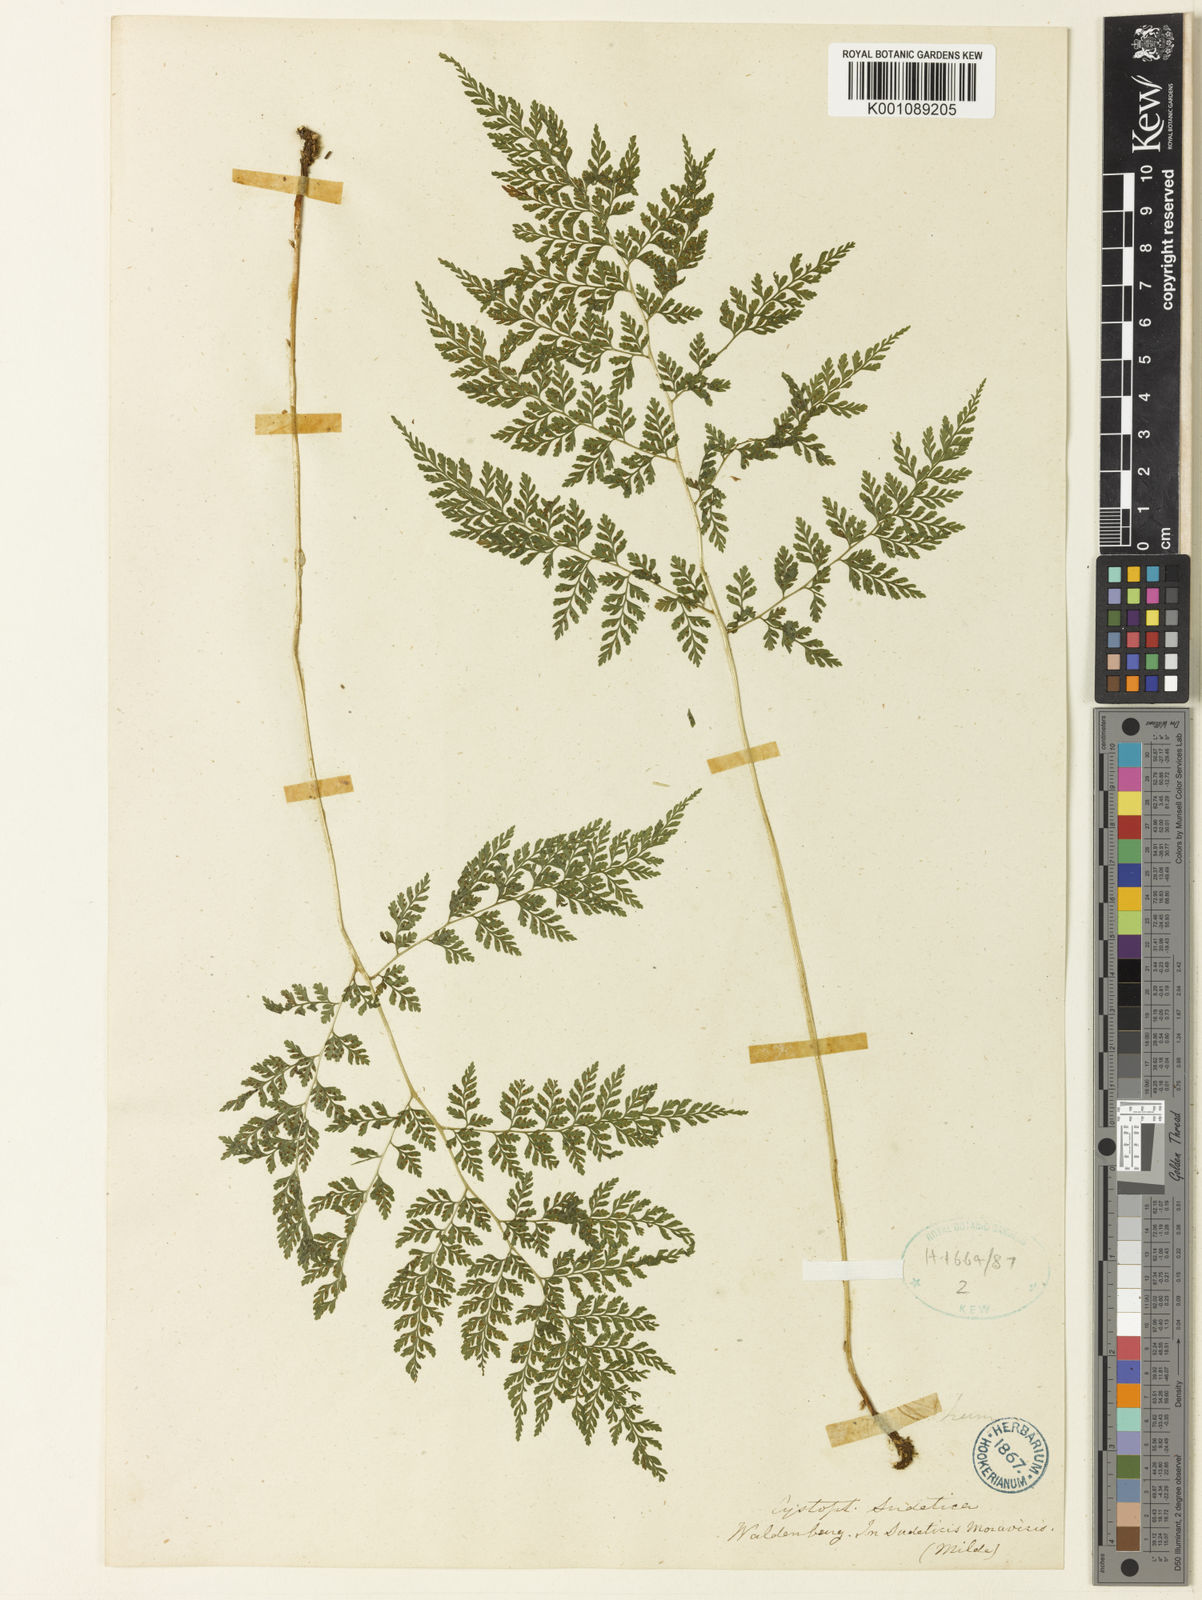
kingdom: Plantae
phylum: Tracheophyta
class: Polypodiopsida
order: Polypodiales
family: Cystopteridaceae
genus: Cystopteris
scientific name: Cystopteris sudetica
